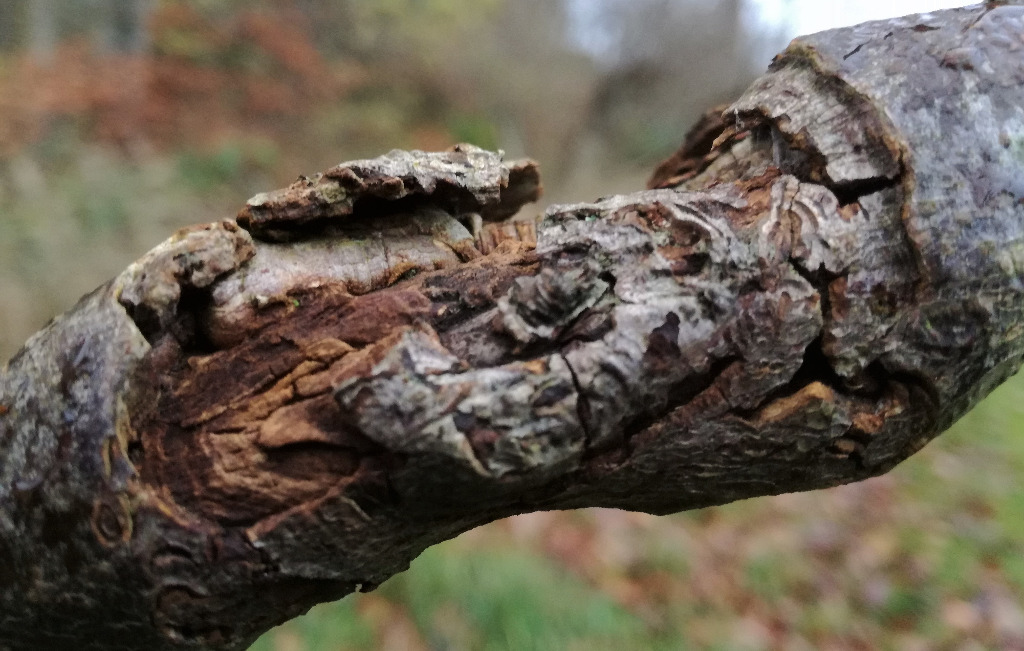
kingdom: Fungi
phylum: Ascomycota
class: Sordariomycetes
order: Hypocreales
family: Nectriaceae
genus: Neonectria
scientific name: Neonectria ditissima
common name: frugttræ-cinnobersvamp
